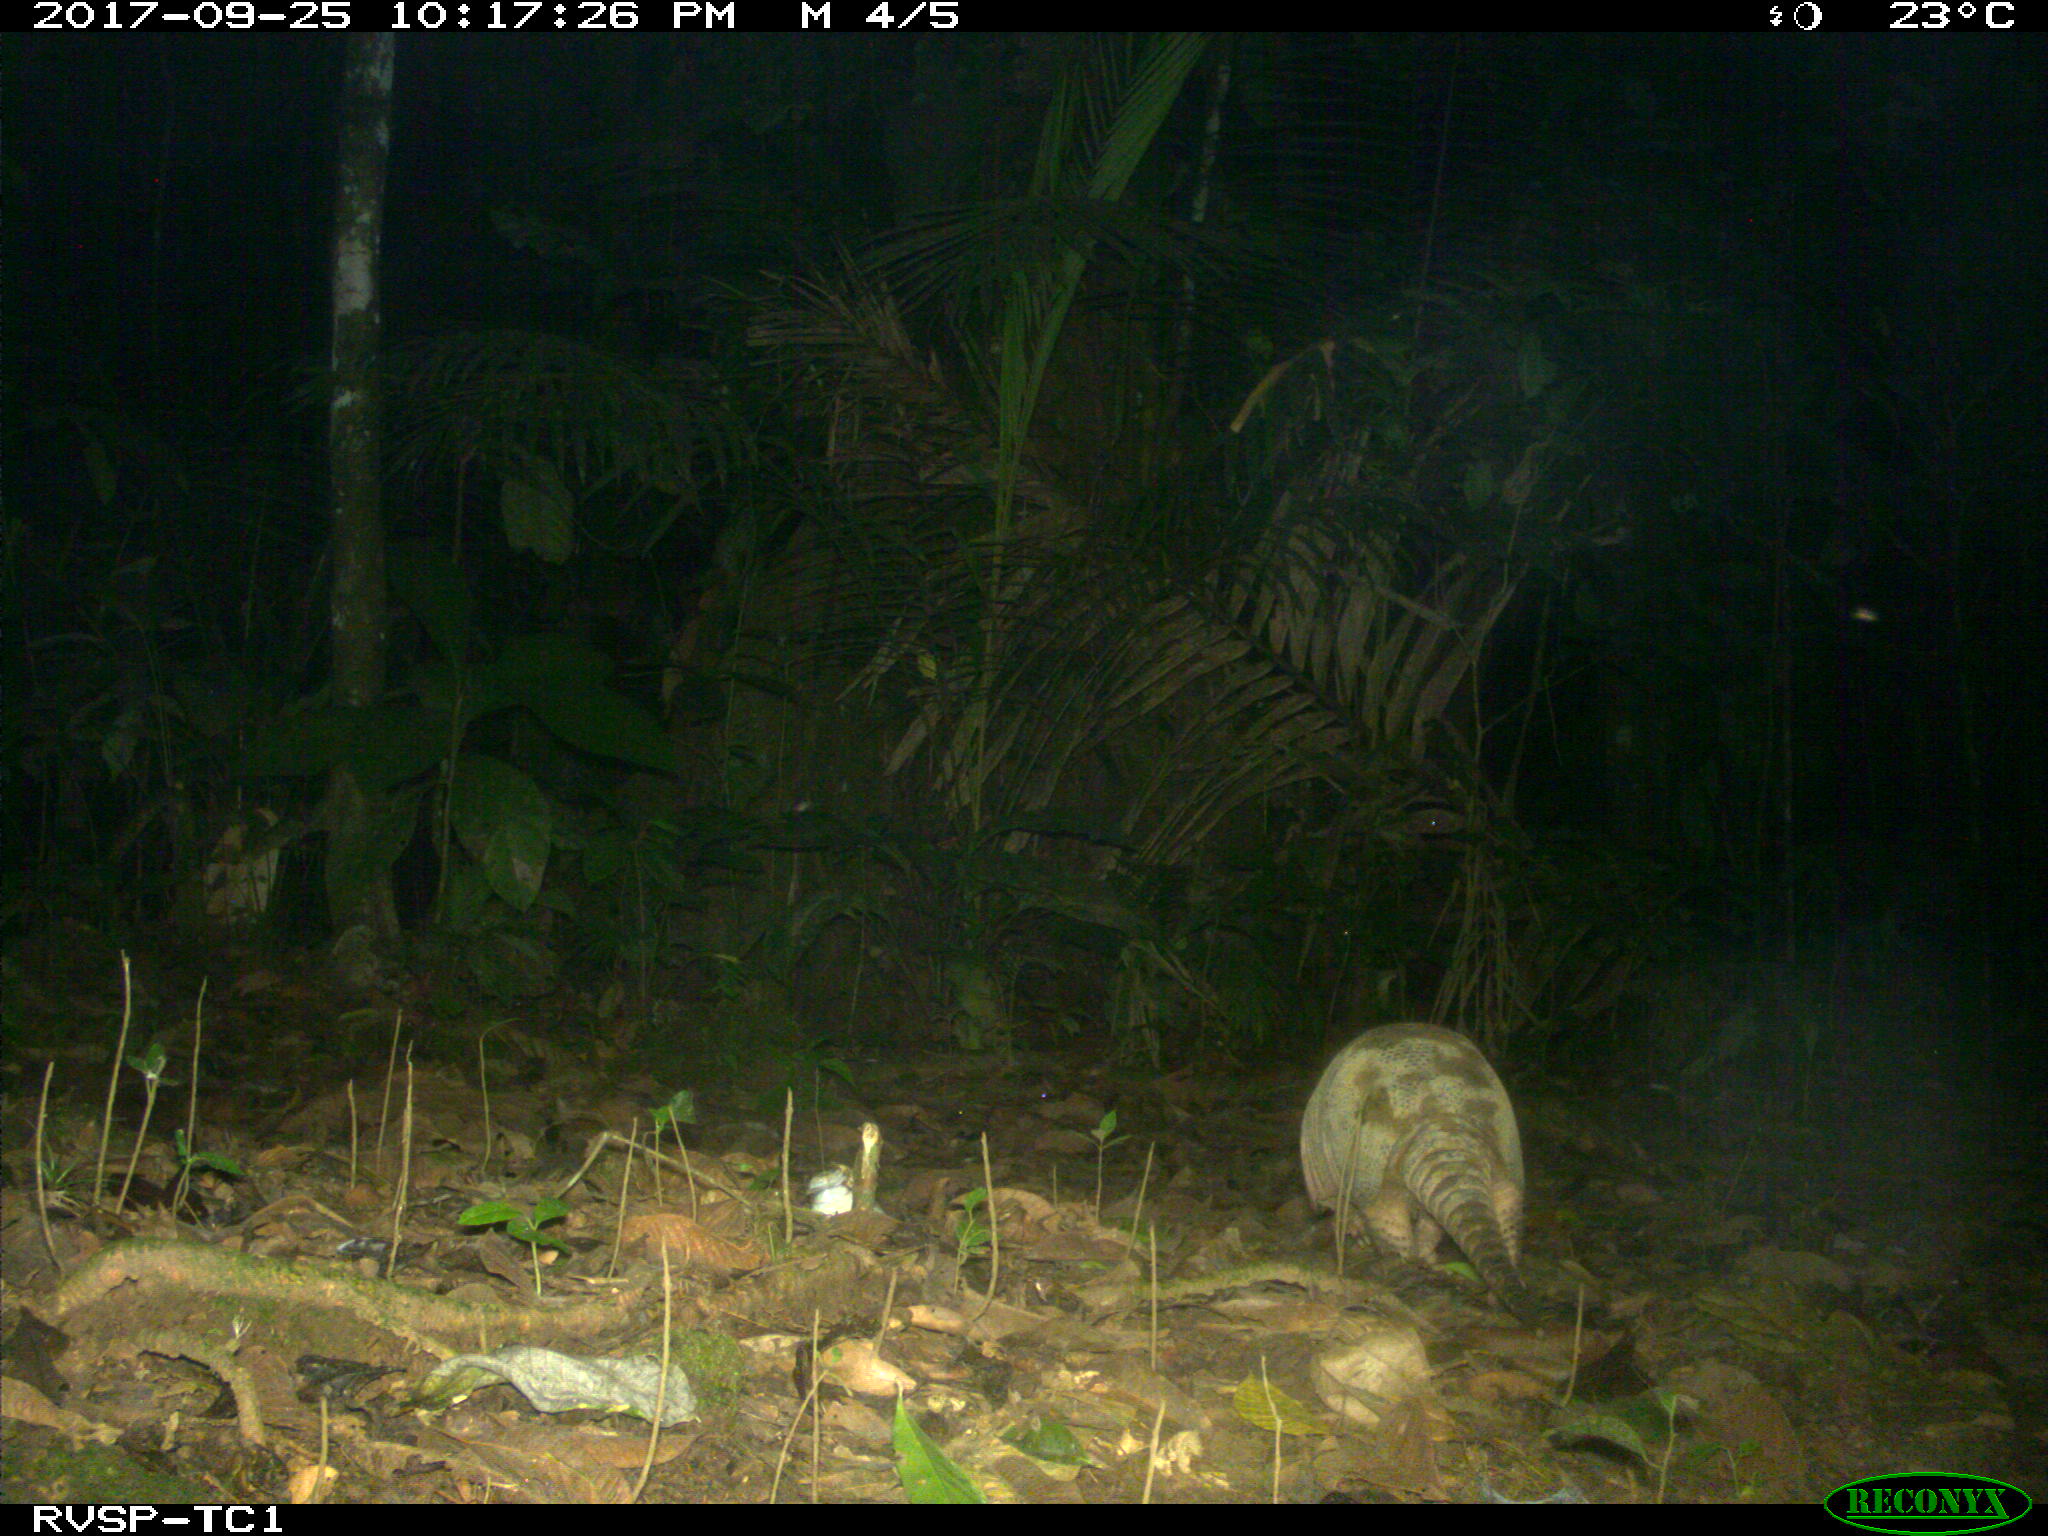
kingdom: Animalia
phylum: Chordata
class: Mammalia
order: Cingulata
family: Dasypodidae
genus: Dasypus
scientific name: Dasypus novemcinctus
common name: Nine-banded armadillo
